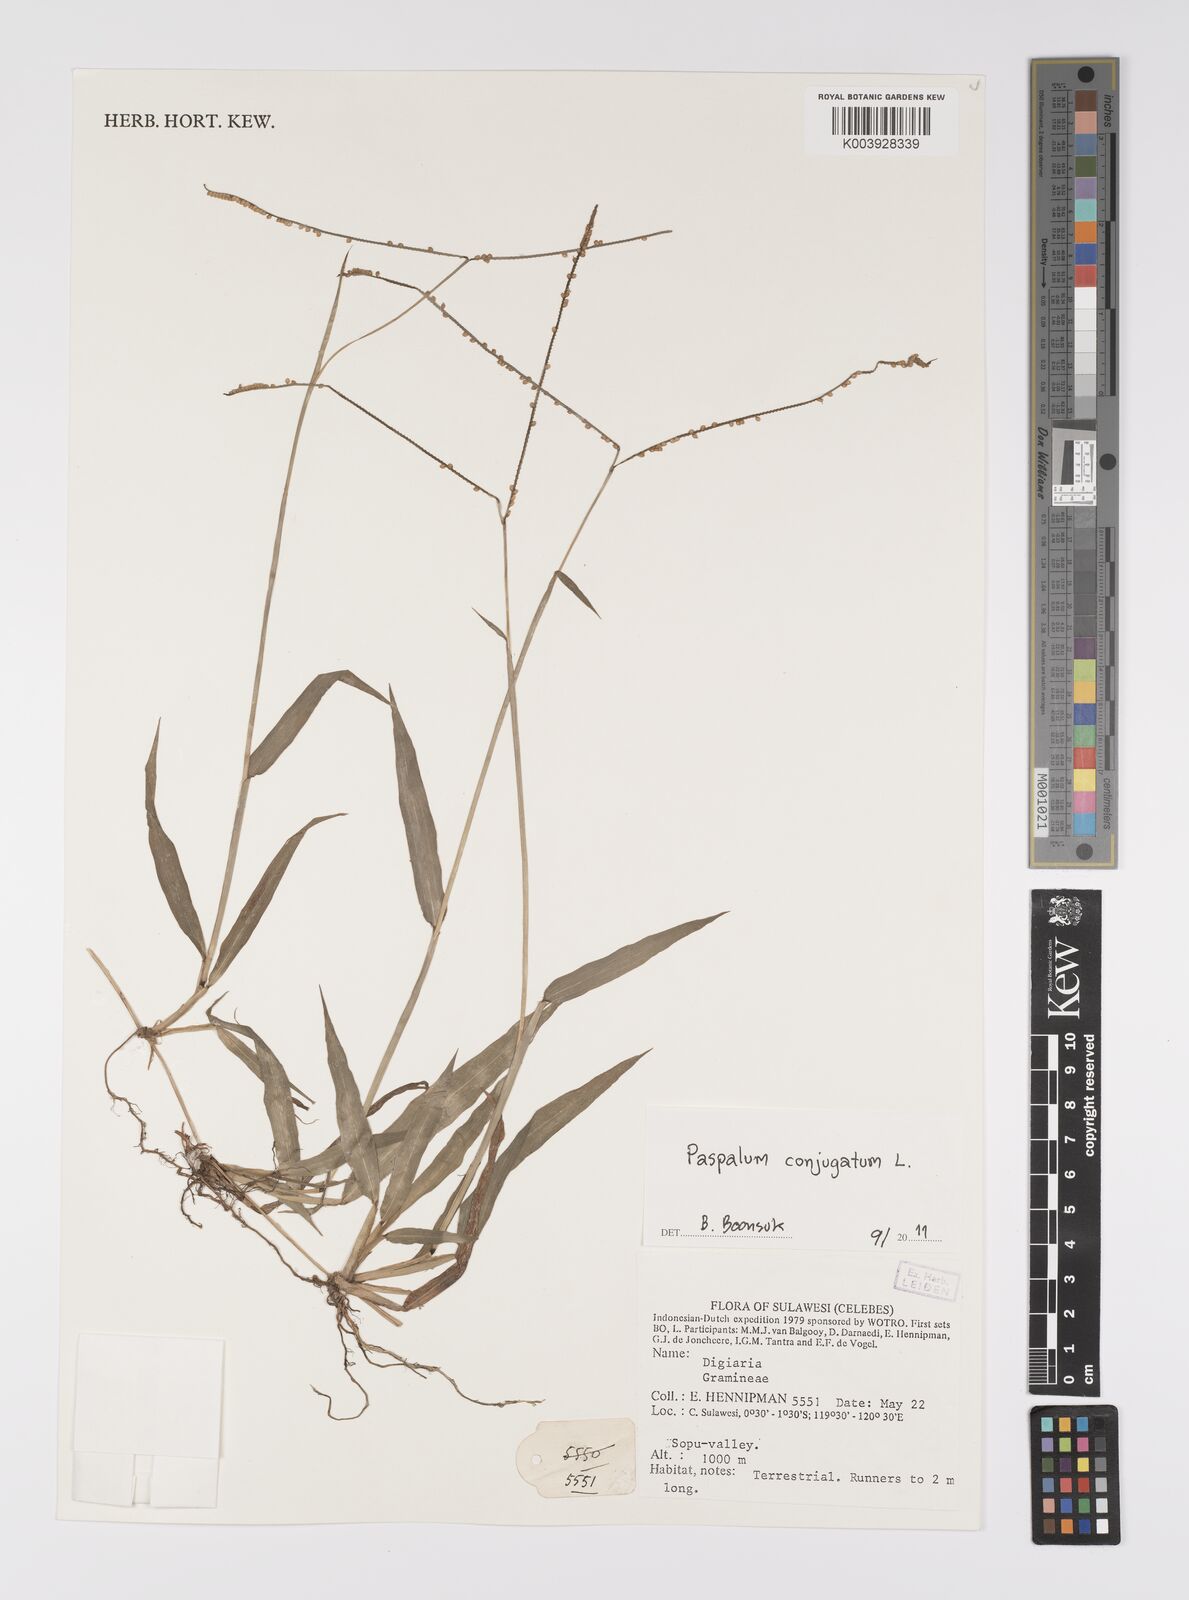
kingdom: Plantae
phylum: Tracheophyta
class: Liliopsida
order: Poales
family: Poaceae
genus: Paspalum
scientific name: Paspalum conjugatum
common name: Hilograss
